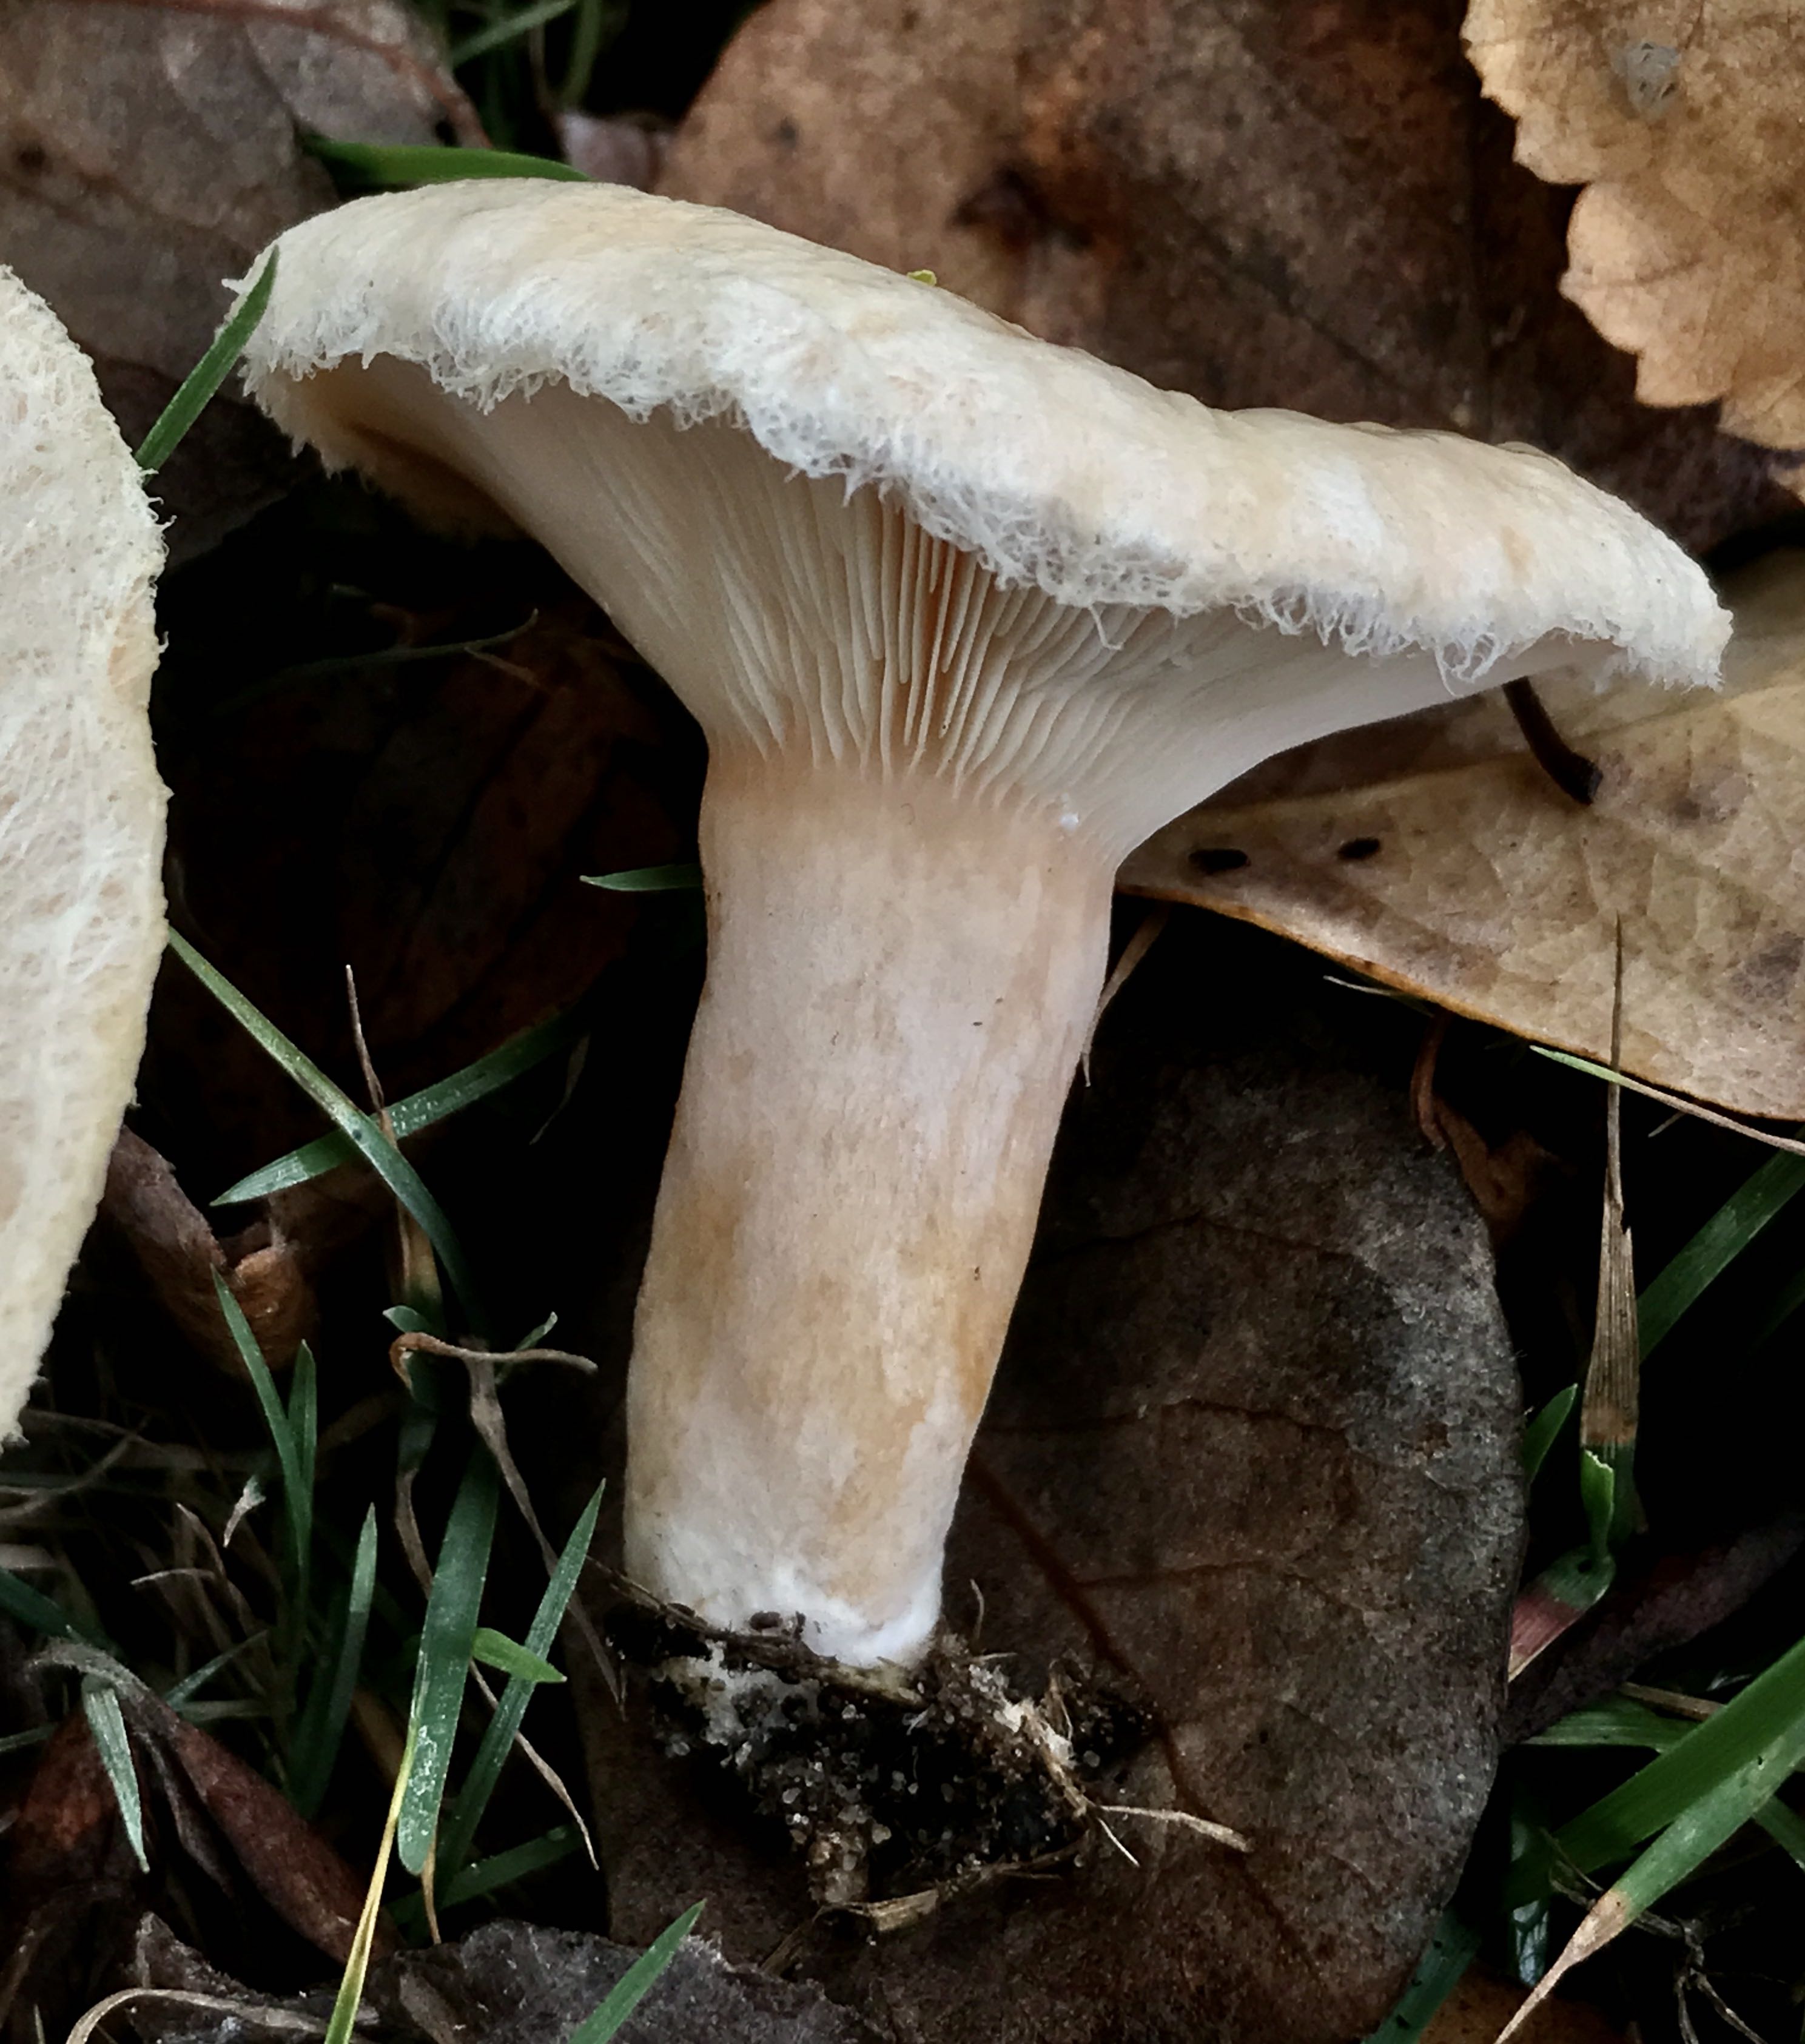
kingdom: Fungi
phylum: Basidiomycota
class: Agaricomycetes
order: Russulales
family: Russulaceae
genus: Lactarius
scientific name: Lactarius pubescens
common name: dunet mælkehat
